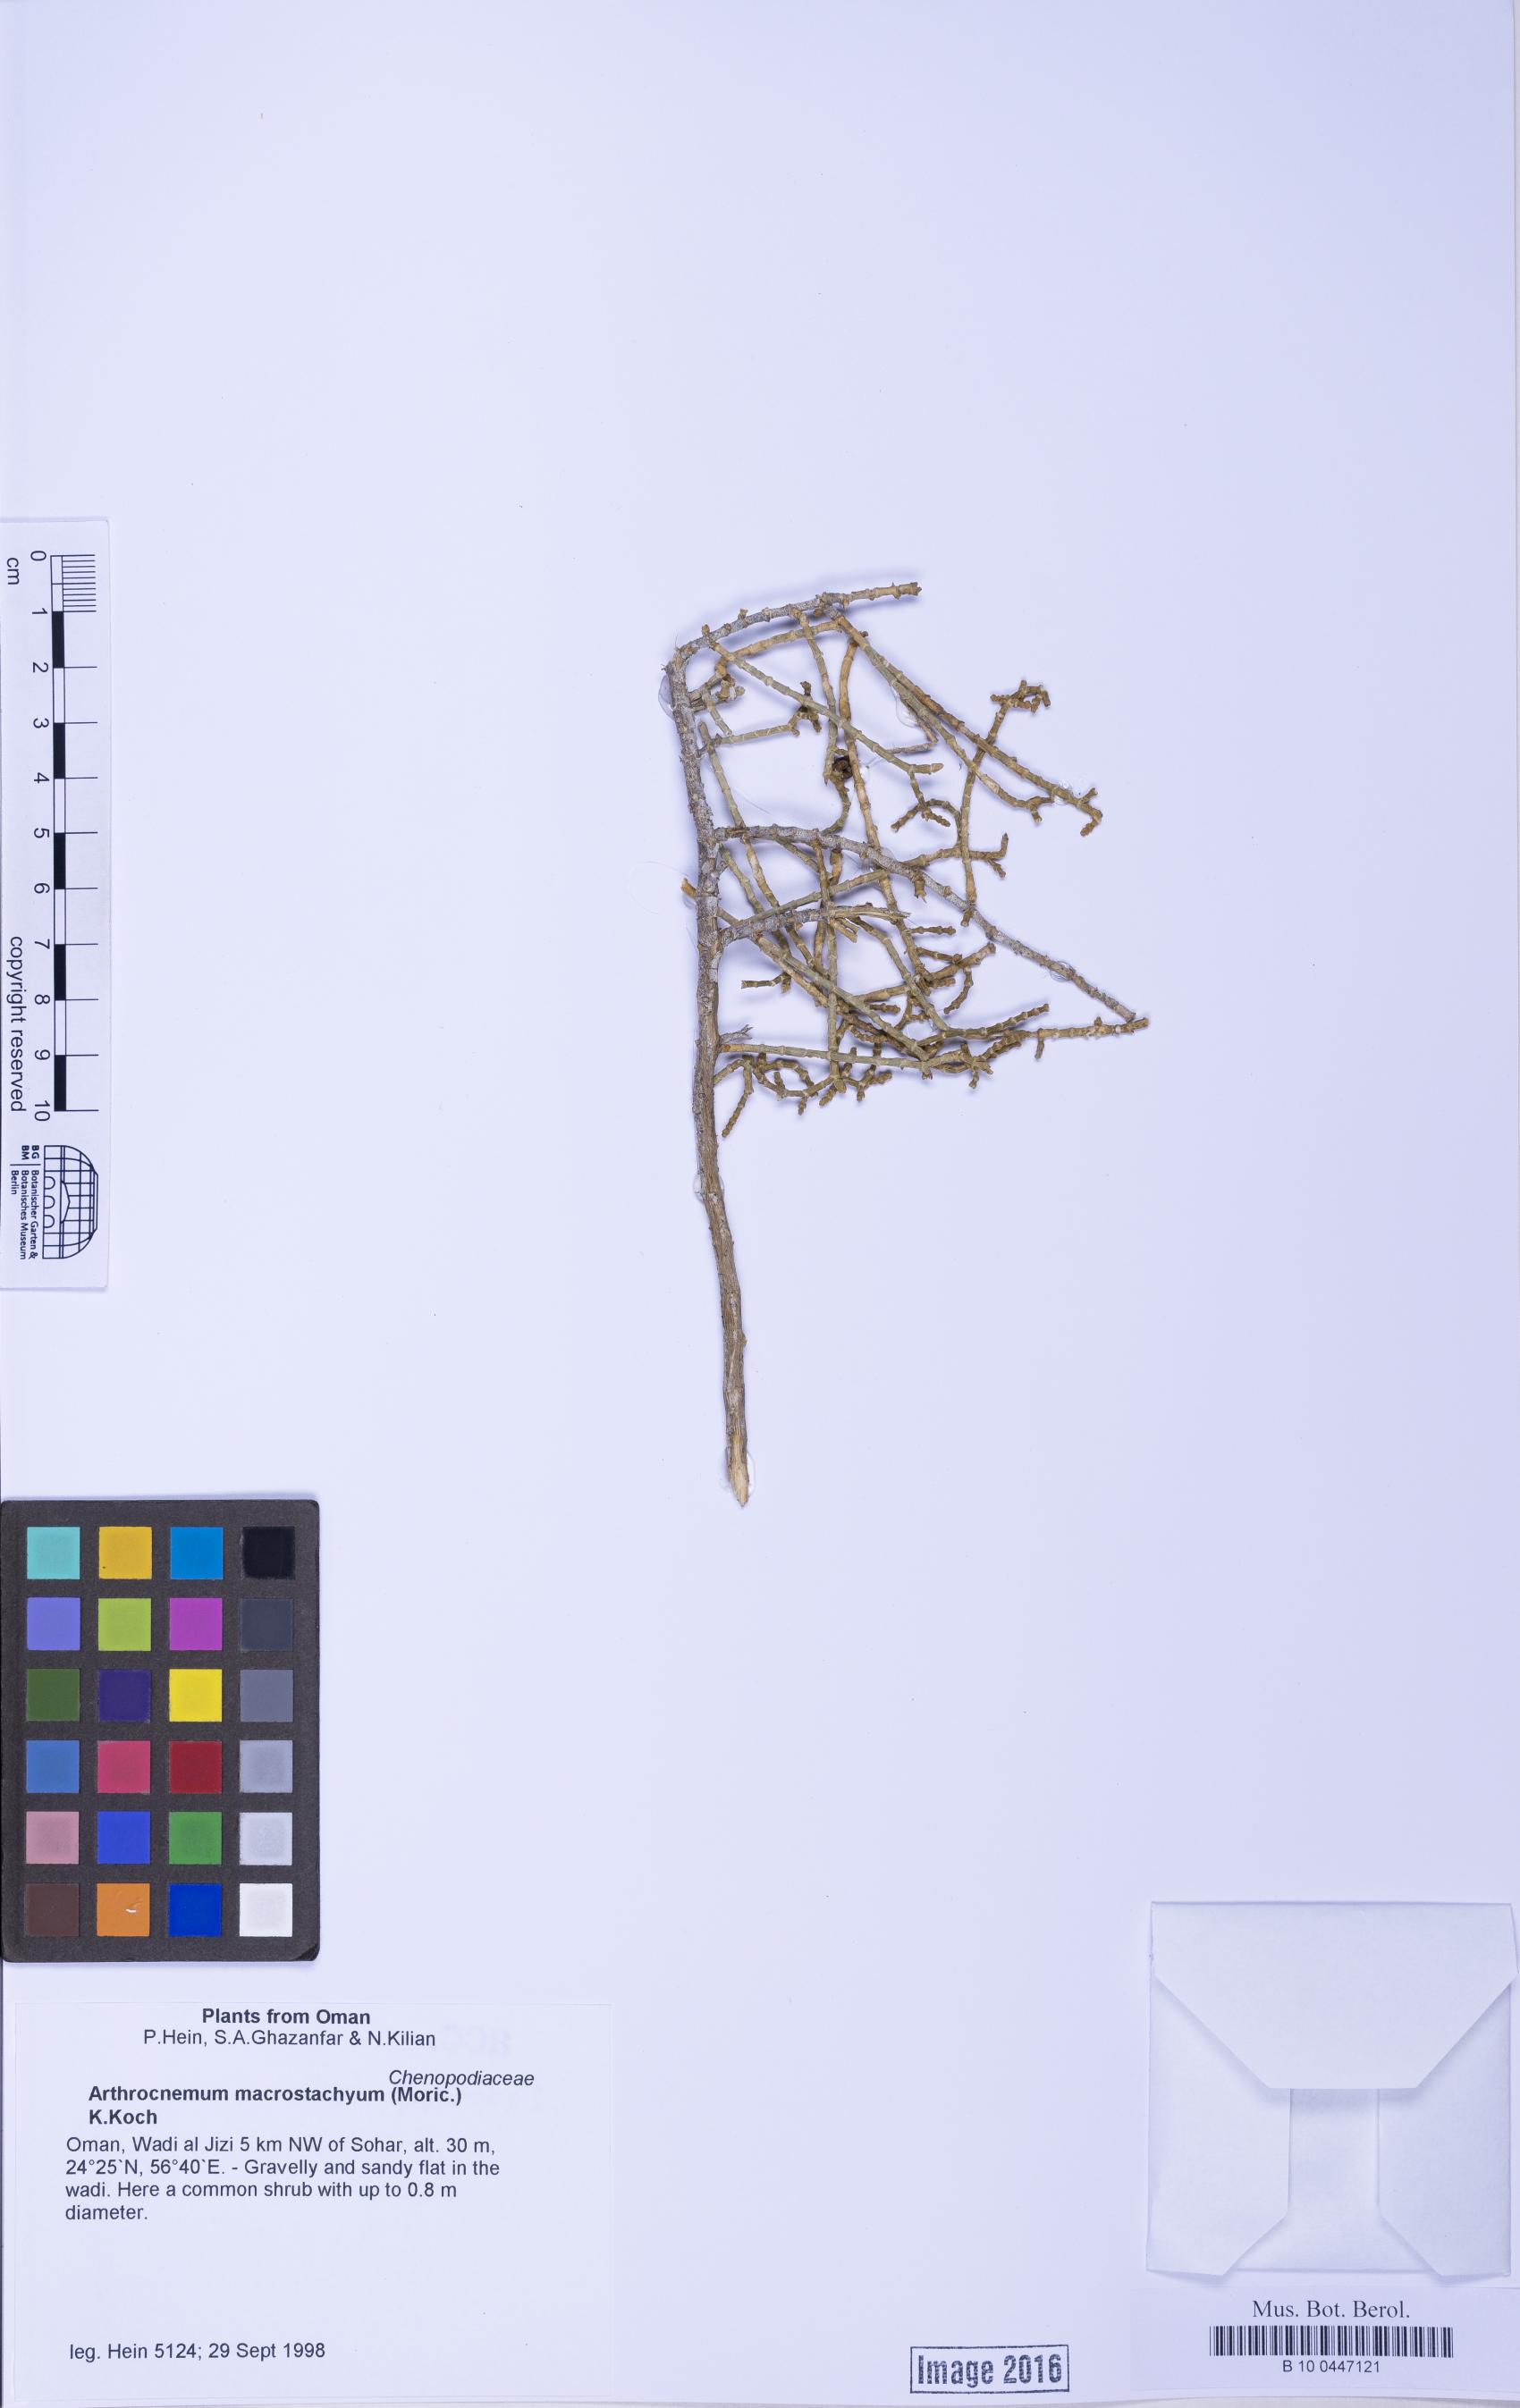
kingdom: Plantae
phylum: Tracheophyta
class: Magnoliopsida
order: Caryophyllales
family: Amaranthaceae
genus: Arthrocaulon
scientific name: Arthrocaulon macrostachyum
